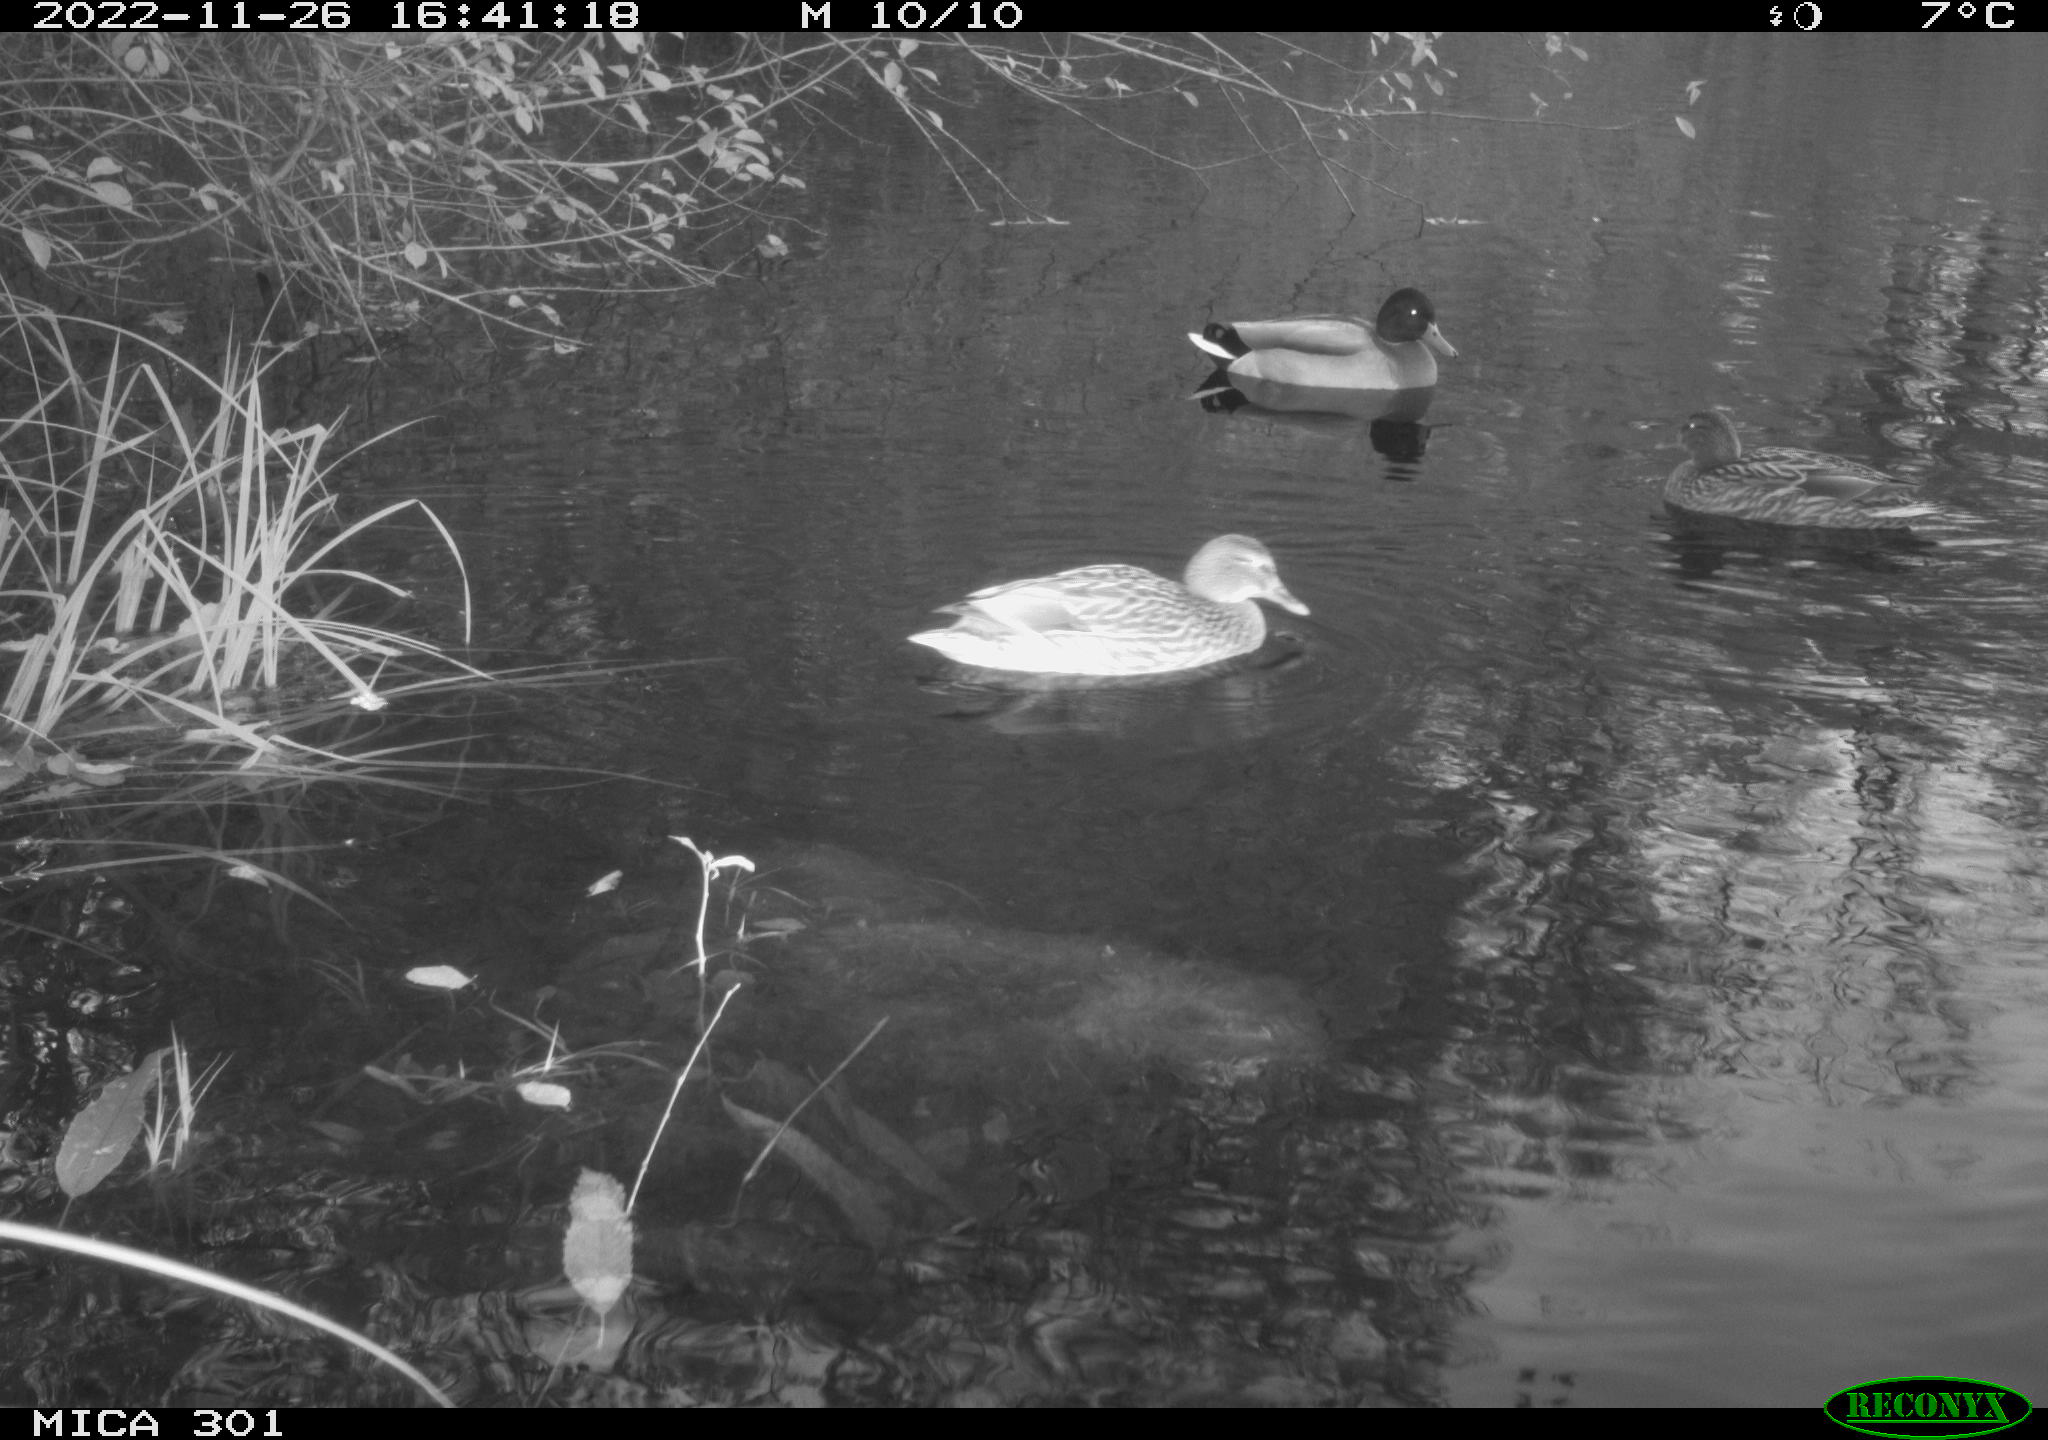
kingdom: Animalia
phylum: Chordata
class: Aves
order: Anseriformes
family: Anatidae
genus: Anas
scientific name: Anas
